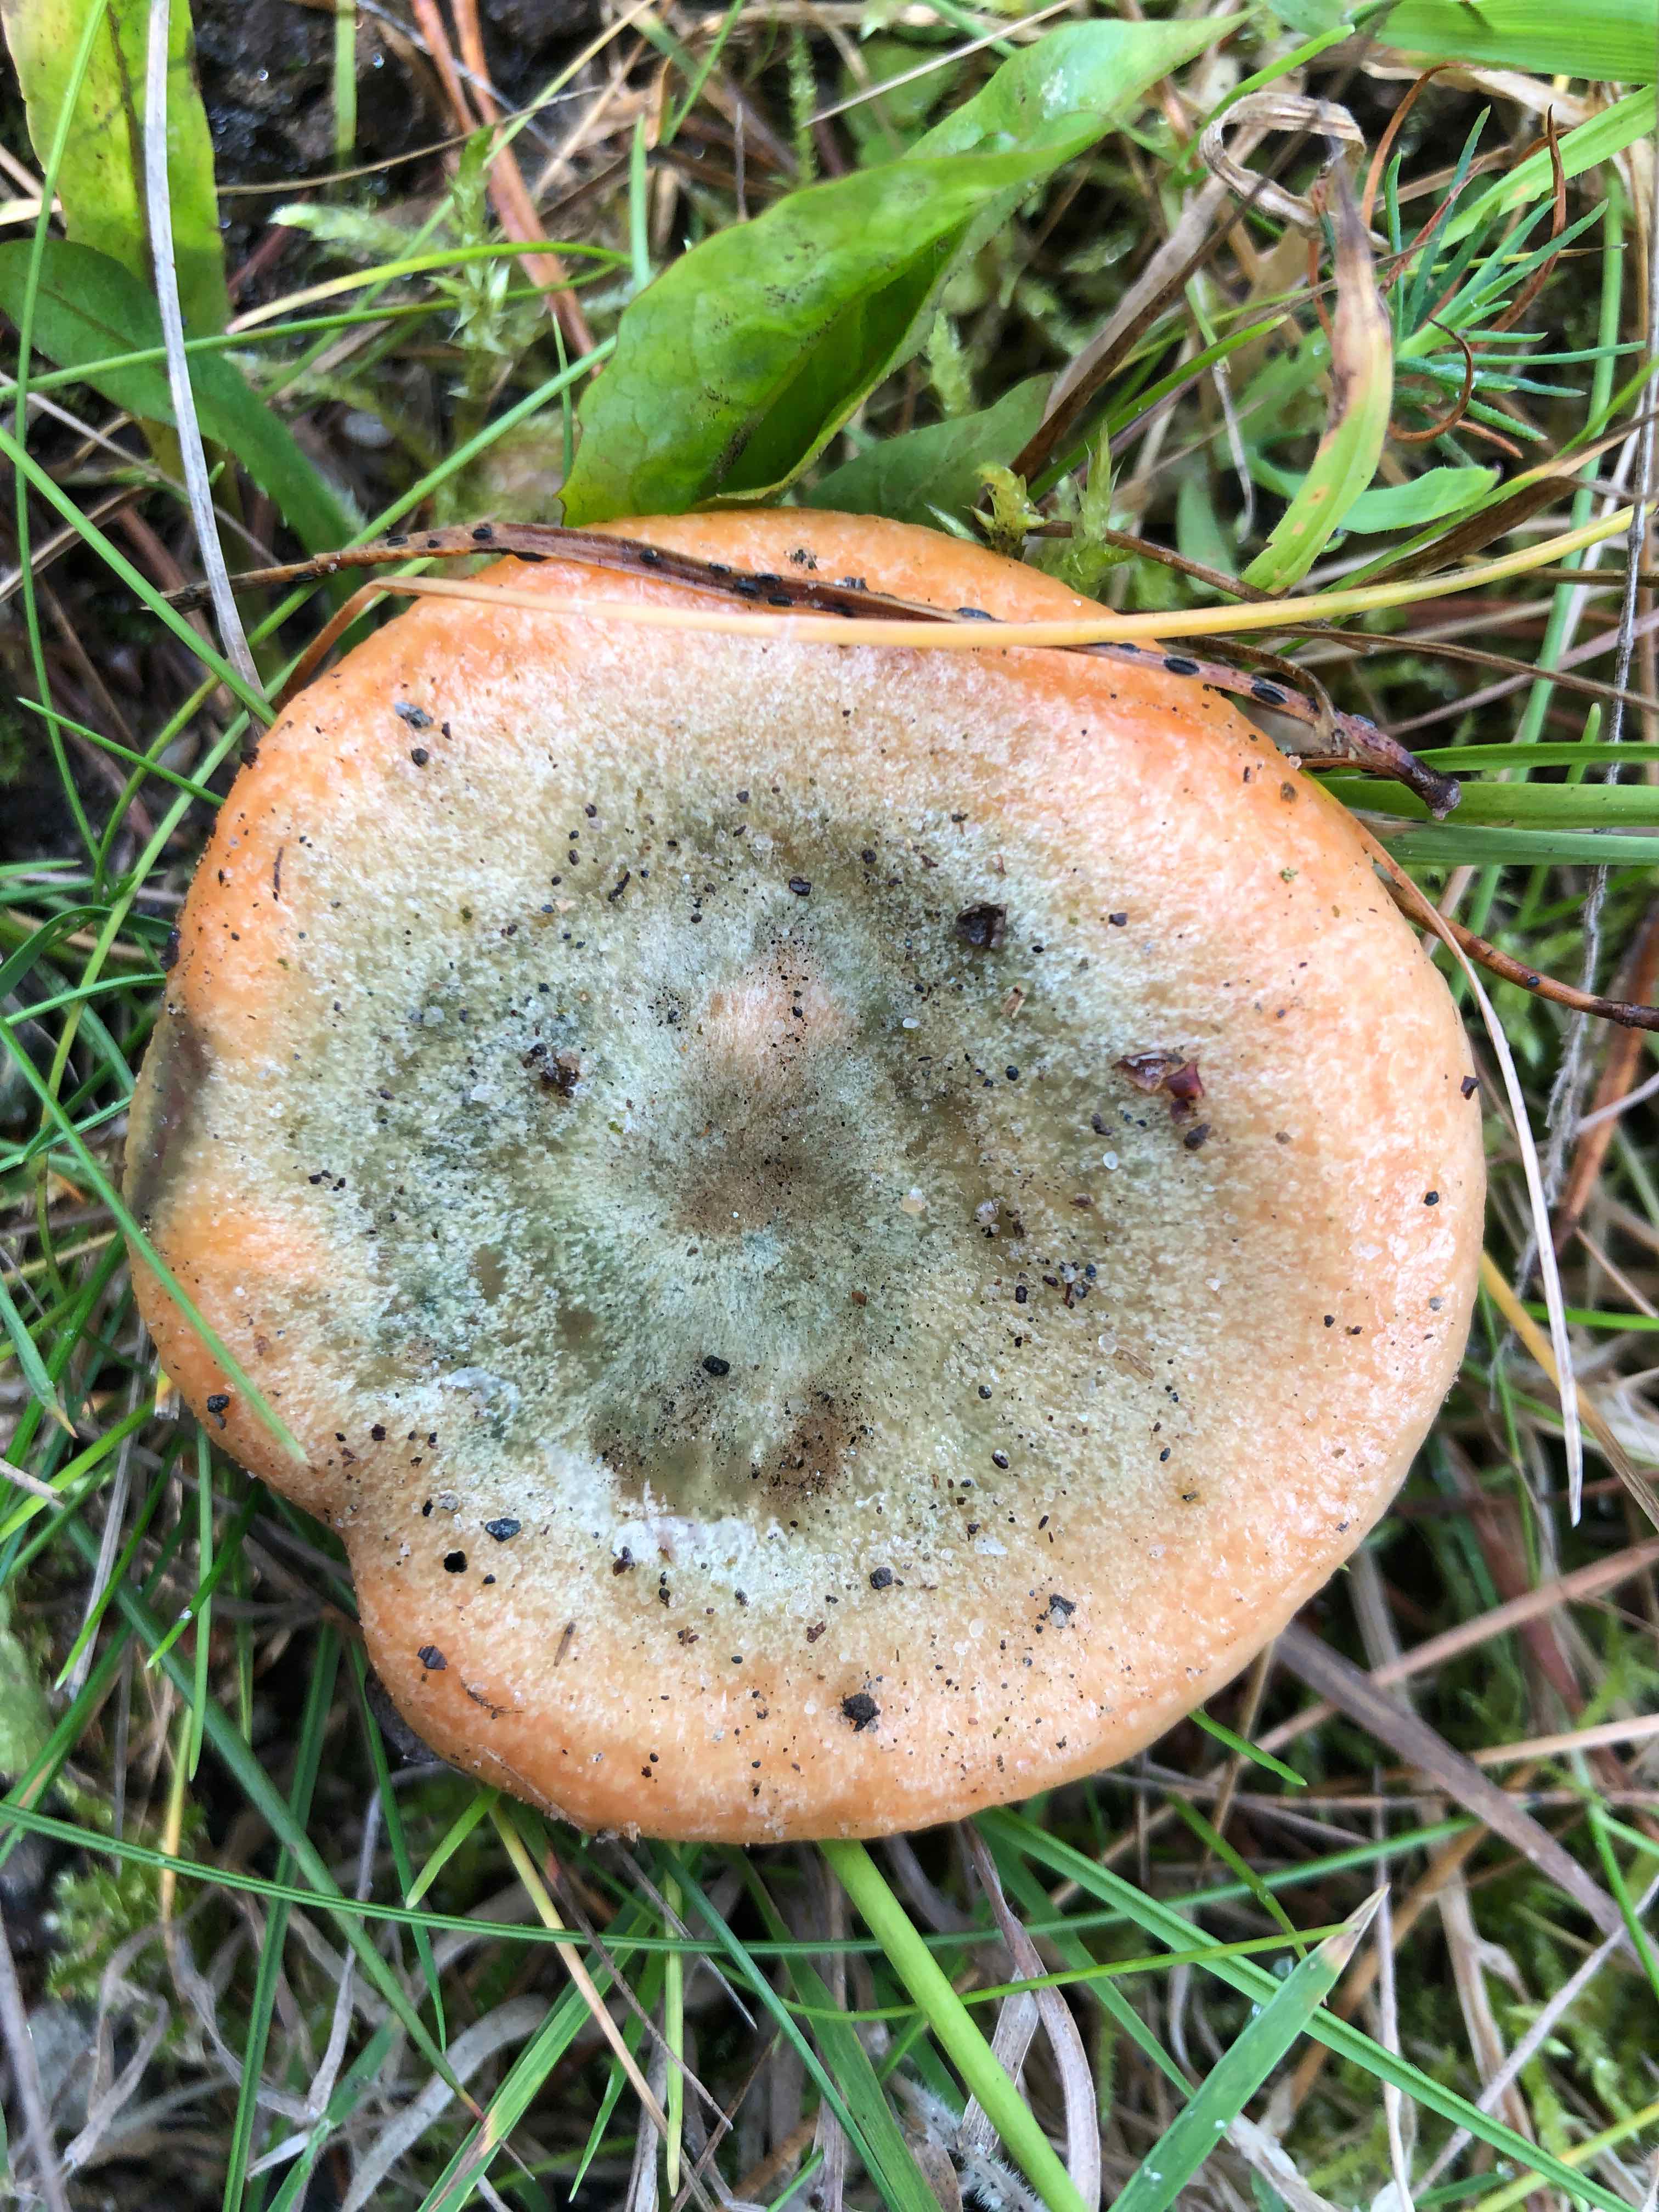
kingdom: Fungi
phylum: Basidiomycota
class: Agaricomycetes
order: Russulales
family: Russulaceae
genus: Lactarius
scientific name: Lactarius deterrimus
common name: gran-mælkehat
